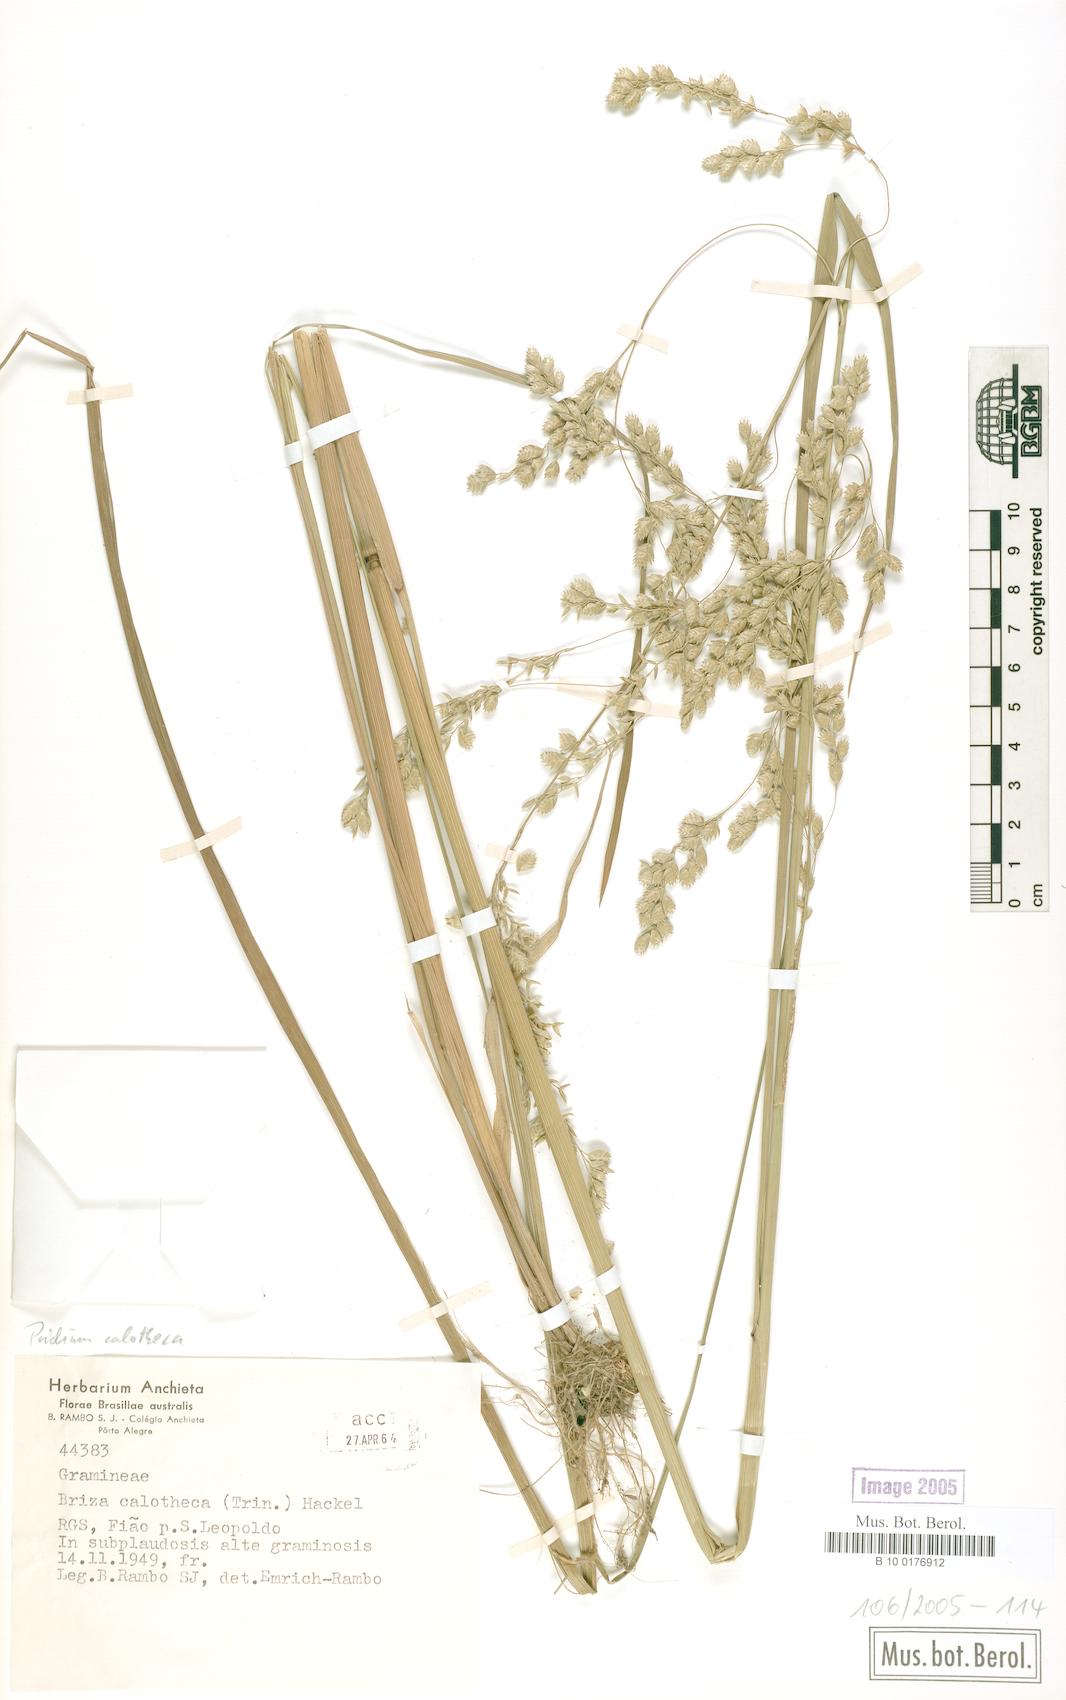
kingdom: Plantae
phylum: Tracheophyta
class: Liliopsida
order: Poales
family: Poaceae
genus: Poidium
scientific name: Poidium calotheca
